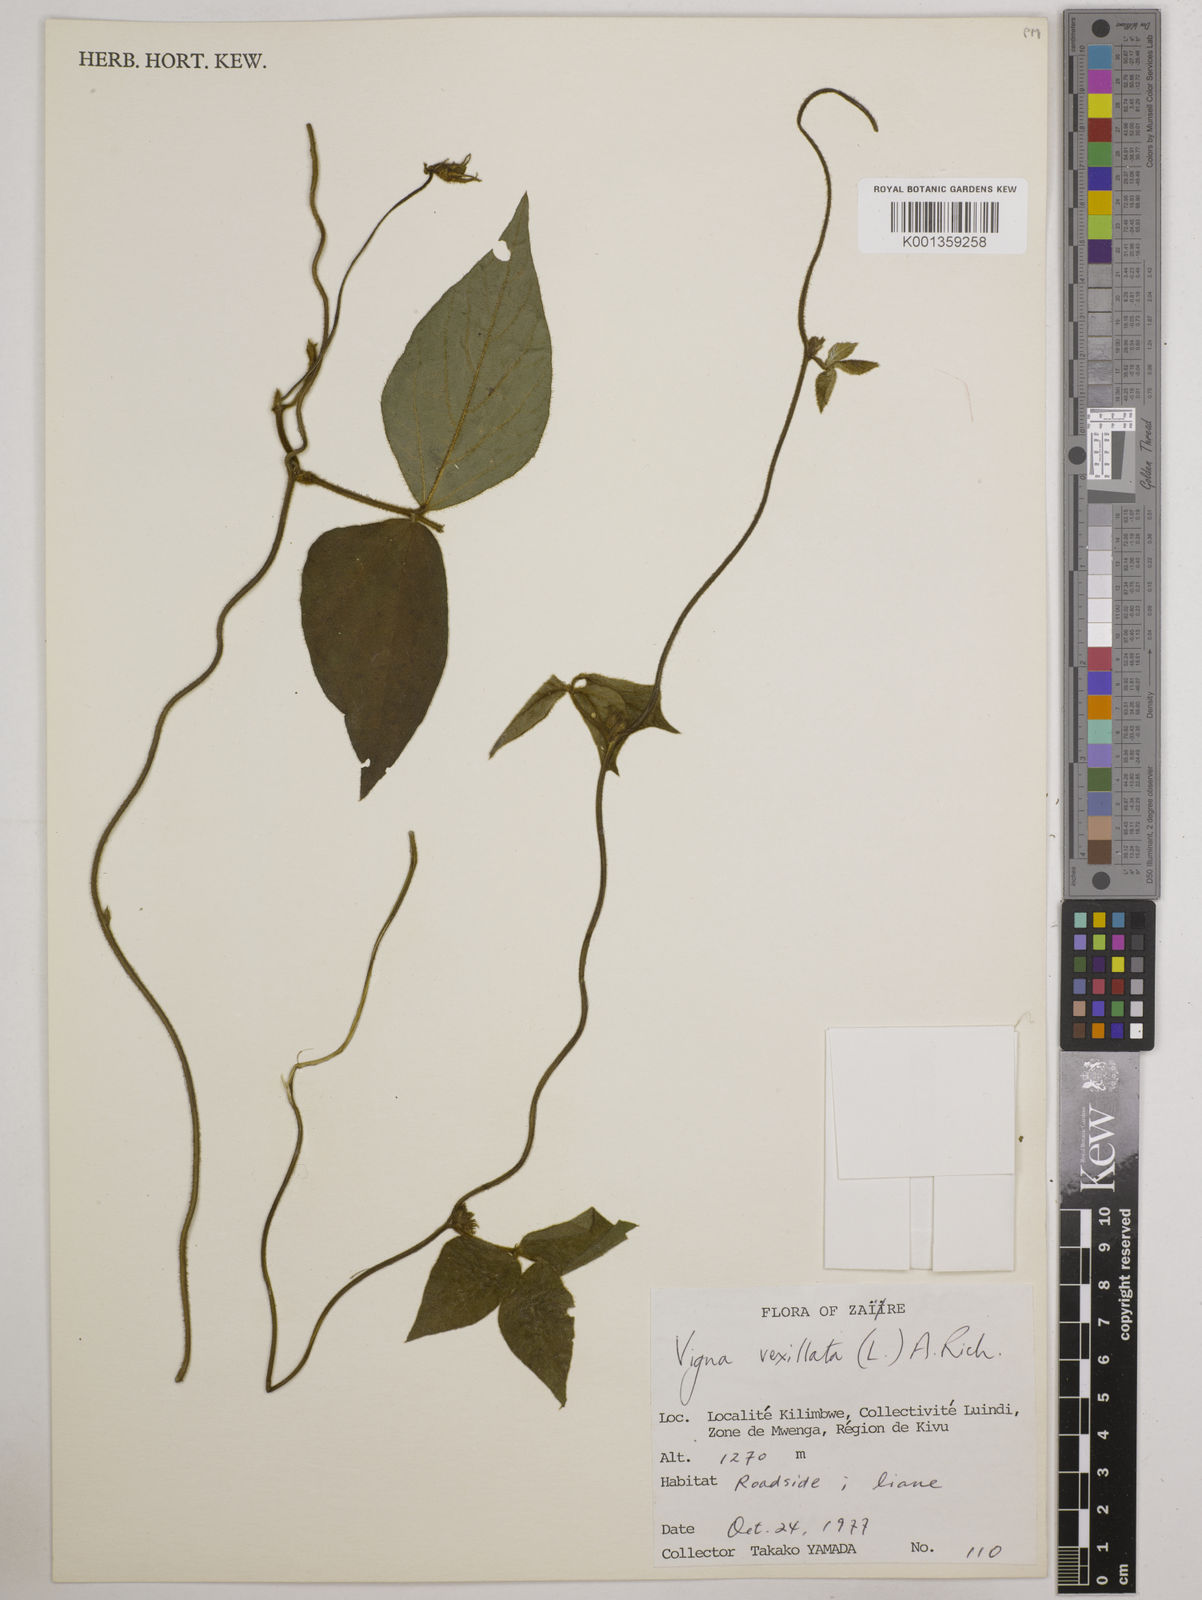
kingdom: Plantae
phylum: Tracheophyta
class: Magnoliopsida
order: Fabales
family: Fabaceae
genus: Vigna
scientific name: Vigna vexillata
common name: Zombi pea
